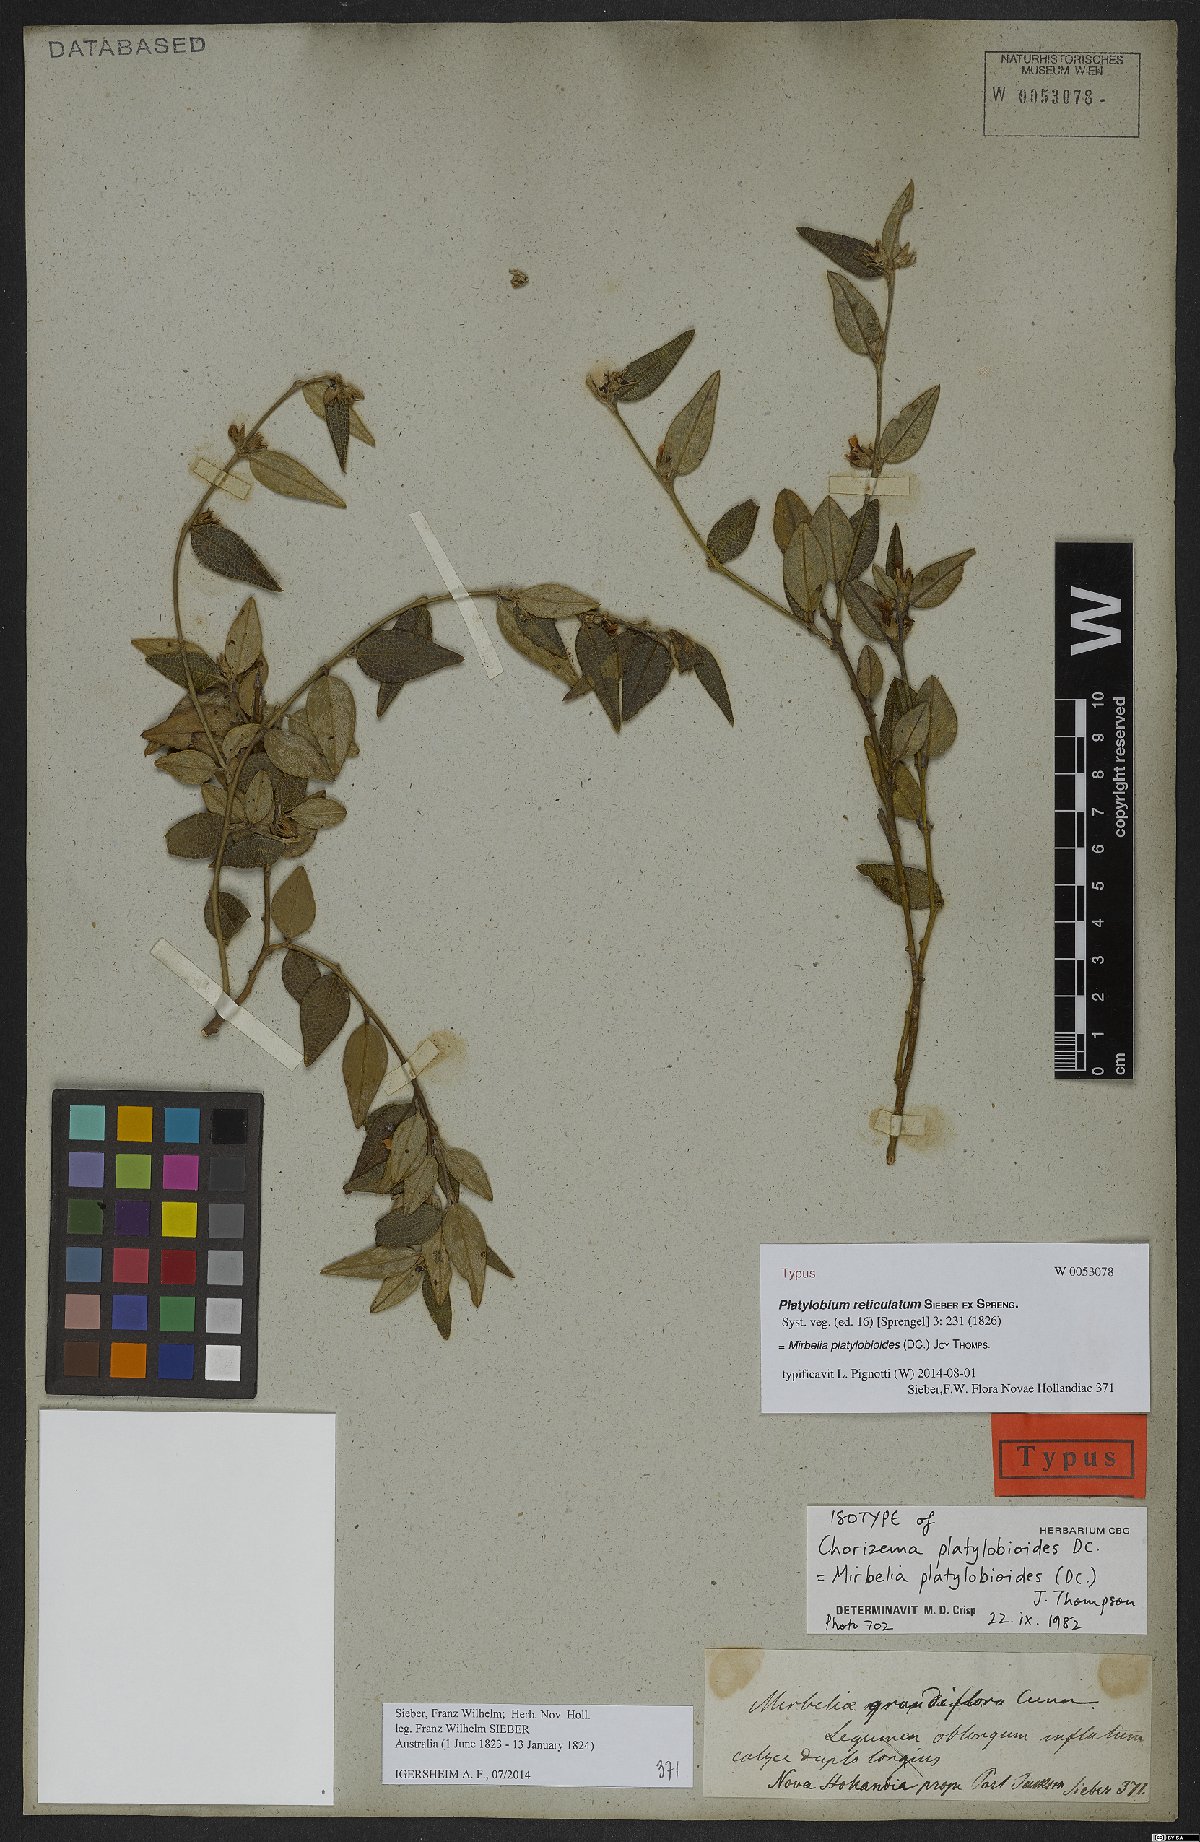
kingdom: Plantae
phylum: Tracheophyta
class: Magnoliopsida
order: Fabales
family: Fabaceae
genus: Mirbelia
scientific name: Mirbelia platylobioides
